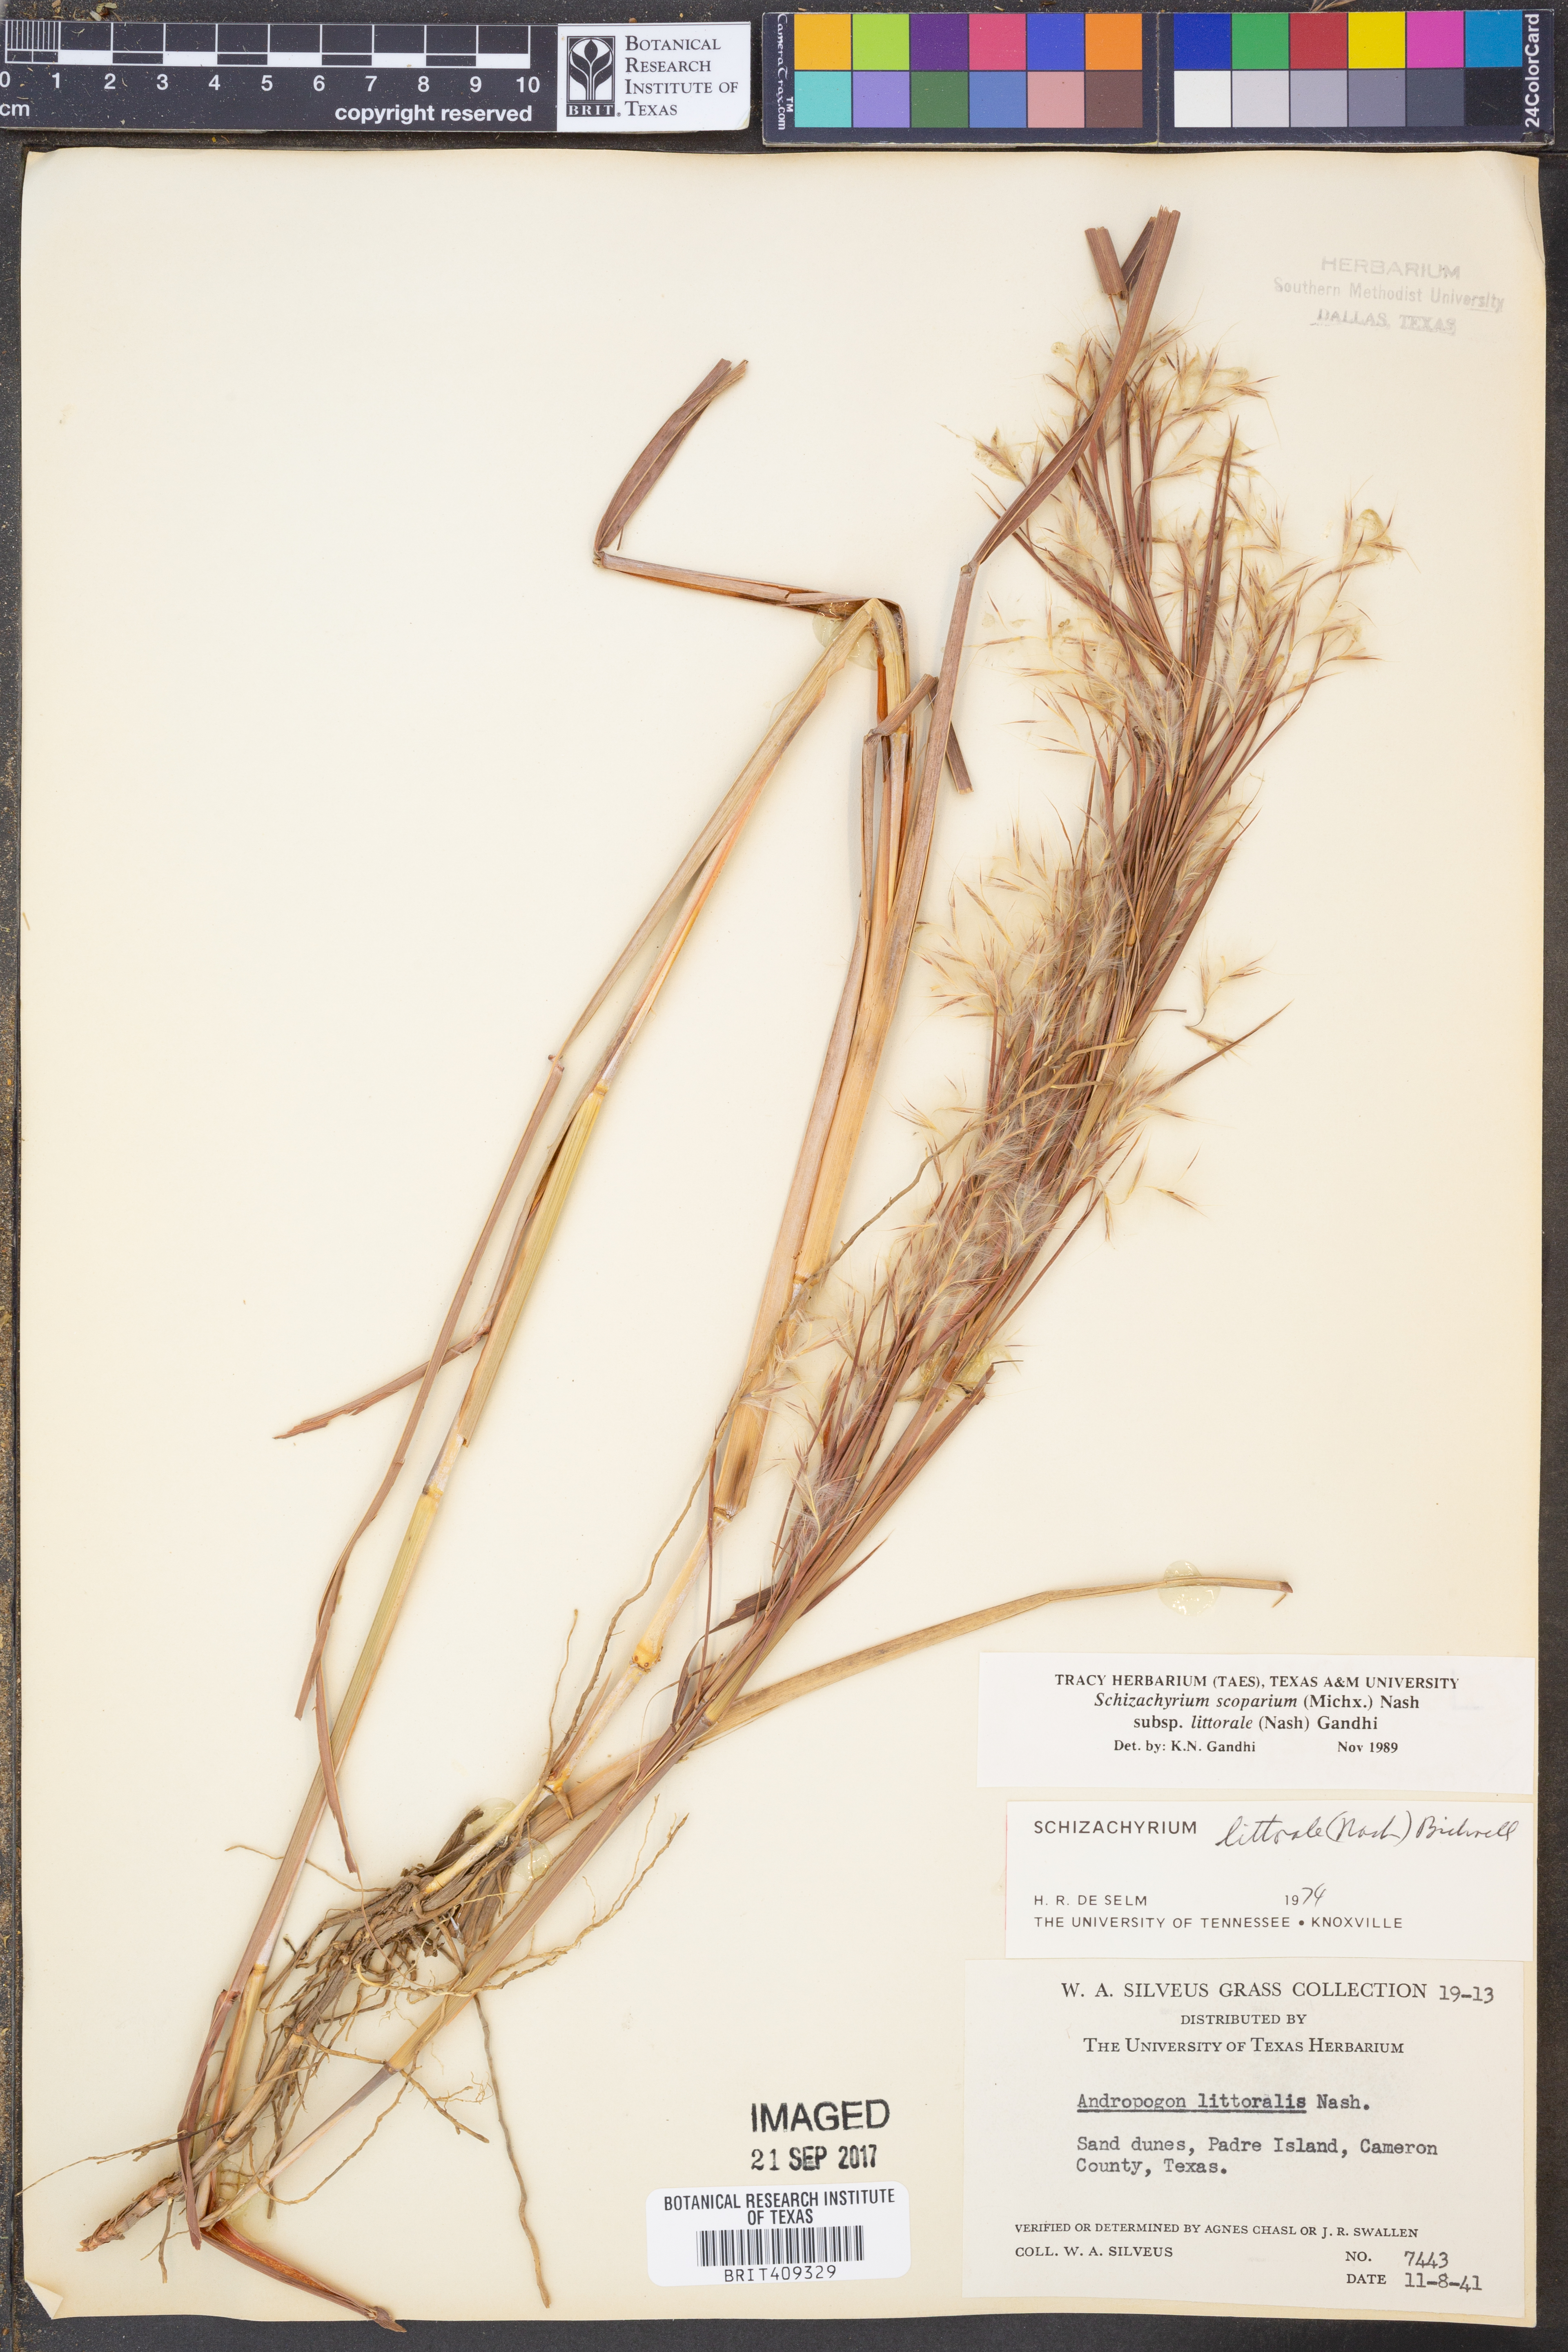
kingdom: Plantae
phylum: Tracheophyta
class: Liliopsida
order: Poales
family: Poaceae
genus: Schizachyrium
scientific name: Schizachyrium scoparium
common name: Little bluestem
